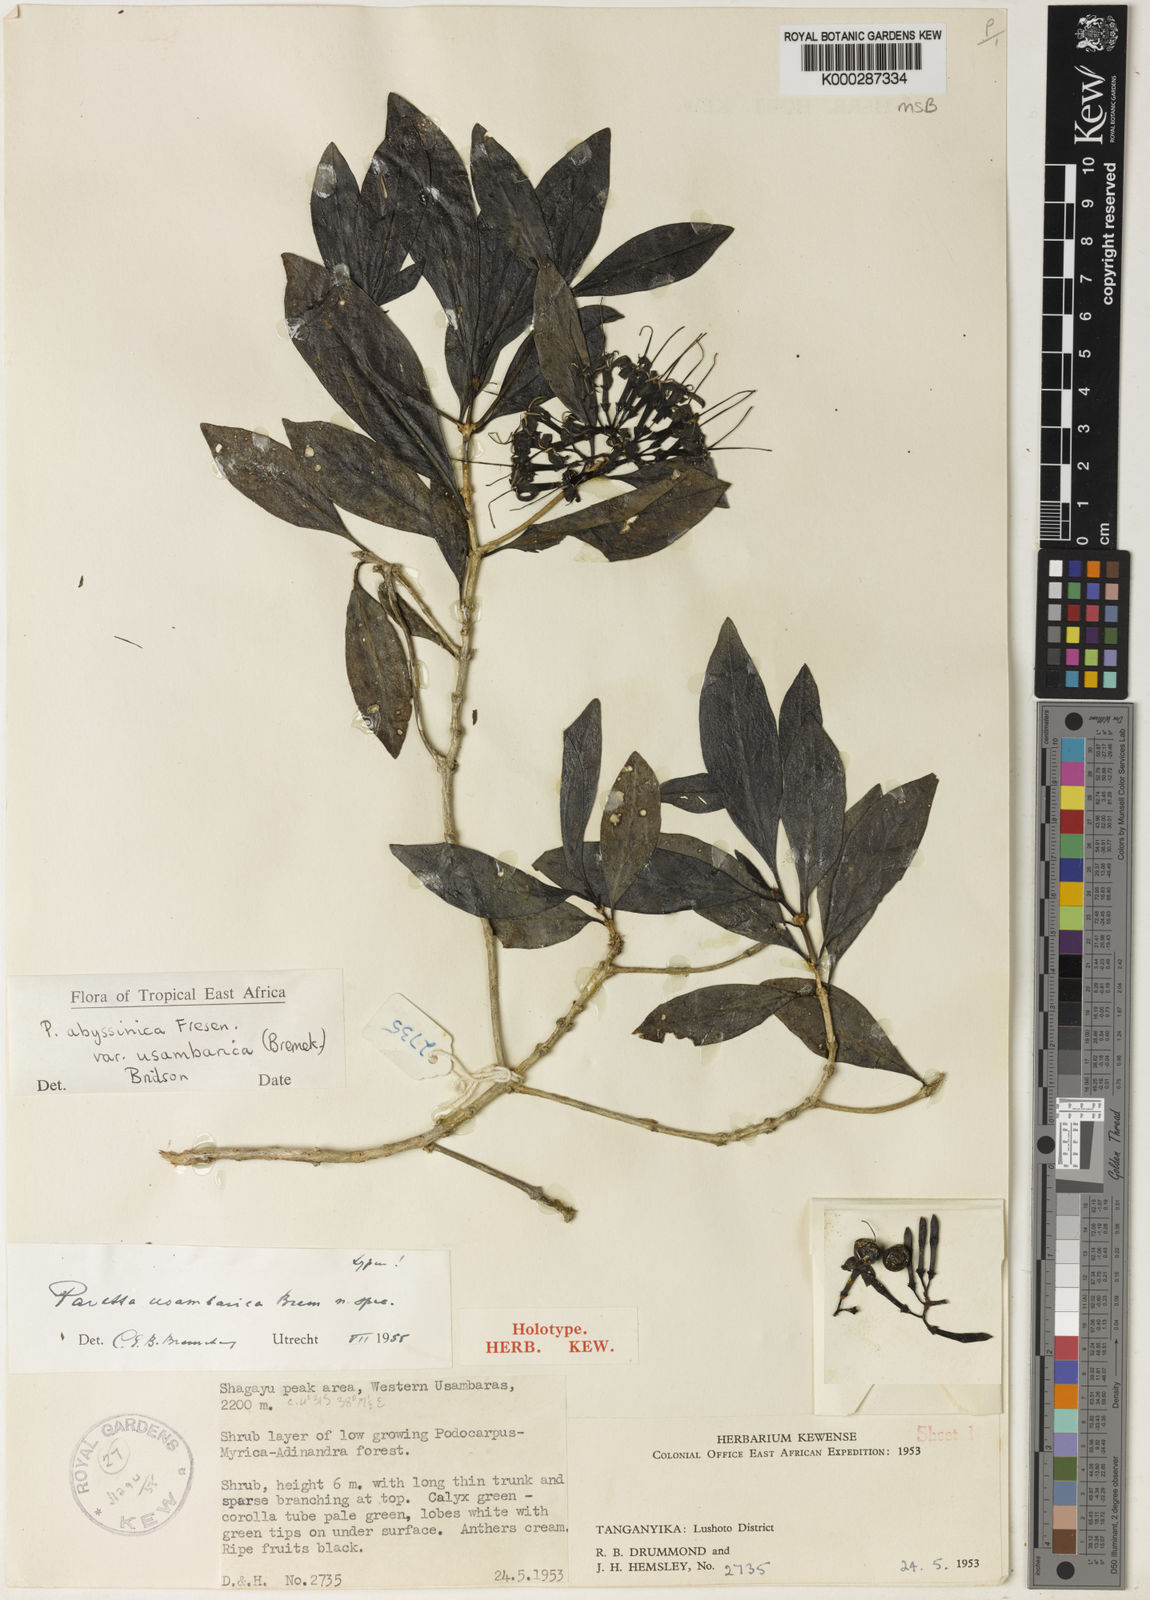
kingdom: Plantae
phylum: Tracheophyta
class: Magnoliopsida
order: Gentianales
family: Rubiaceae
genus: Pavetta
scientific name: Pavetta abyssinica
